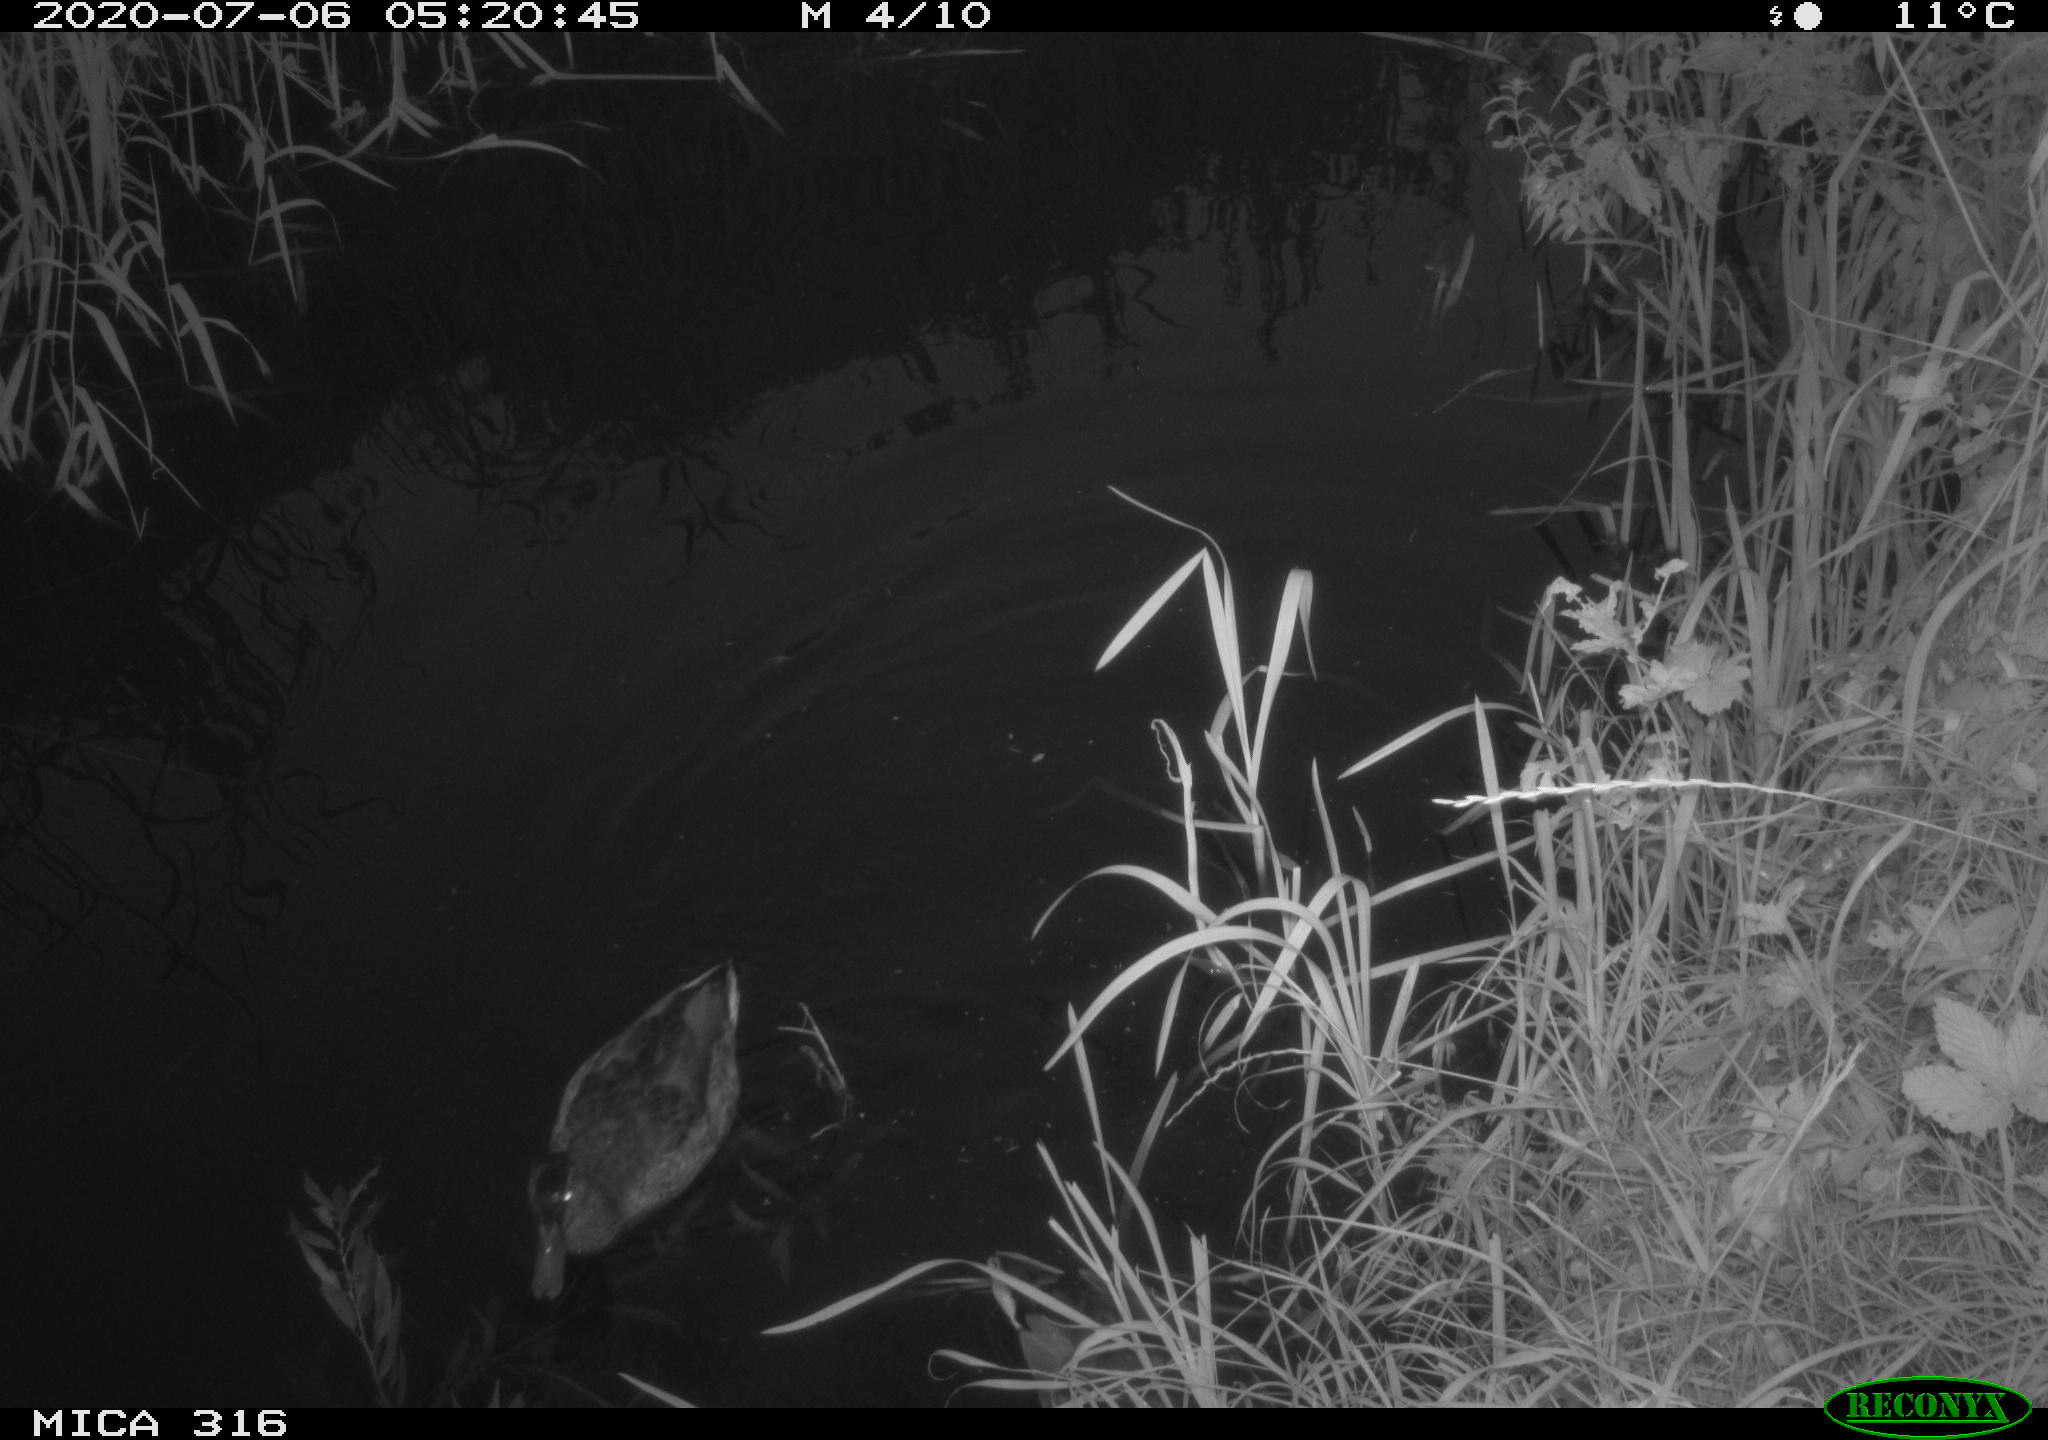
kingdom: Animalia
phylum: Chordata
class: Aves
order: Anseriformes
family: Anatidae
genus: Anas
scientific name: Anas platyrhynchos
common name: Mallard
